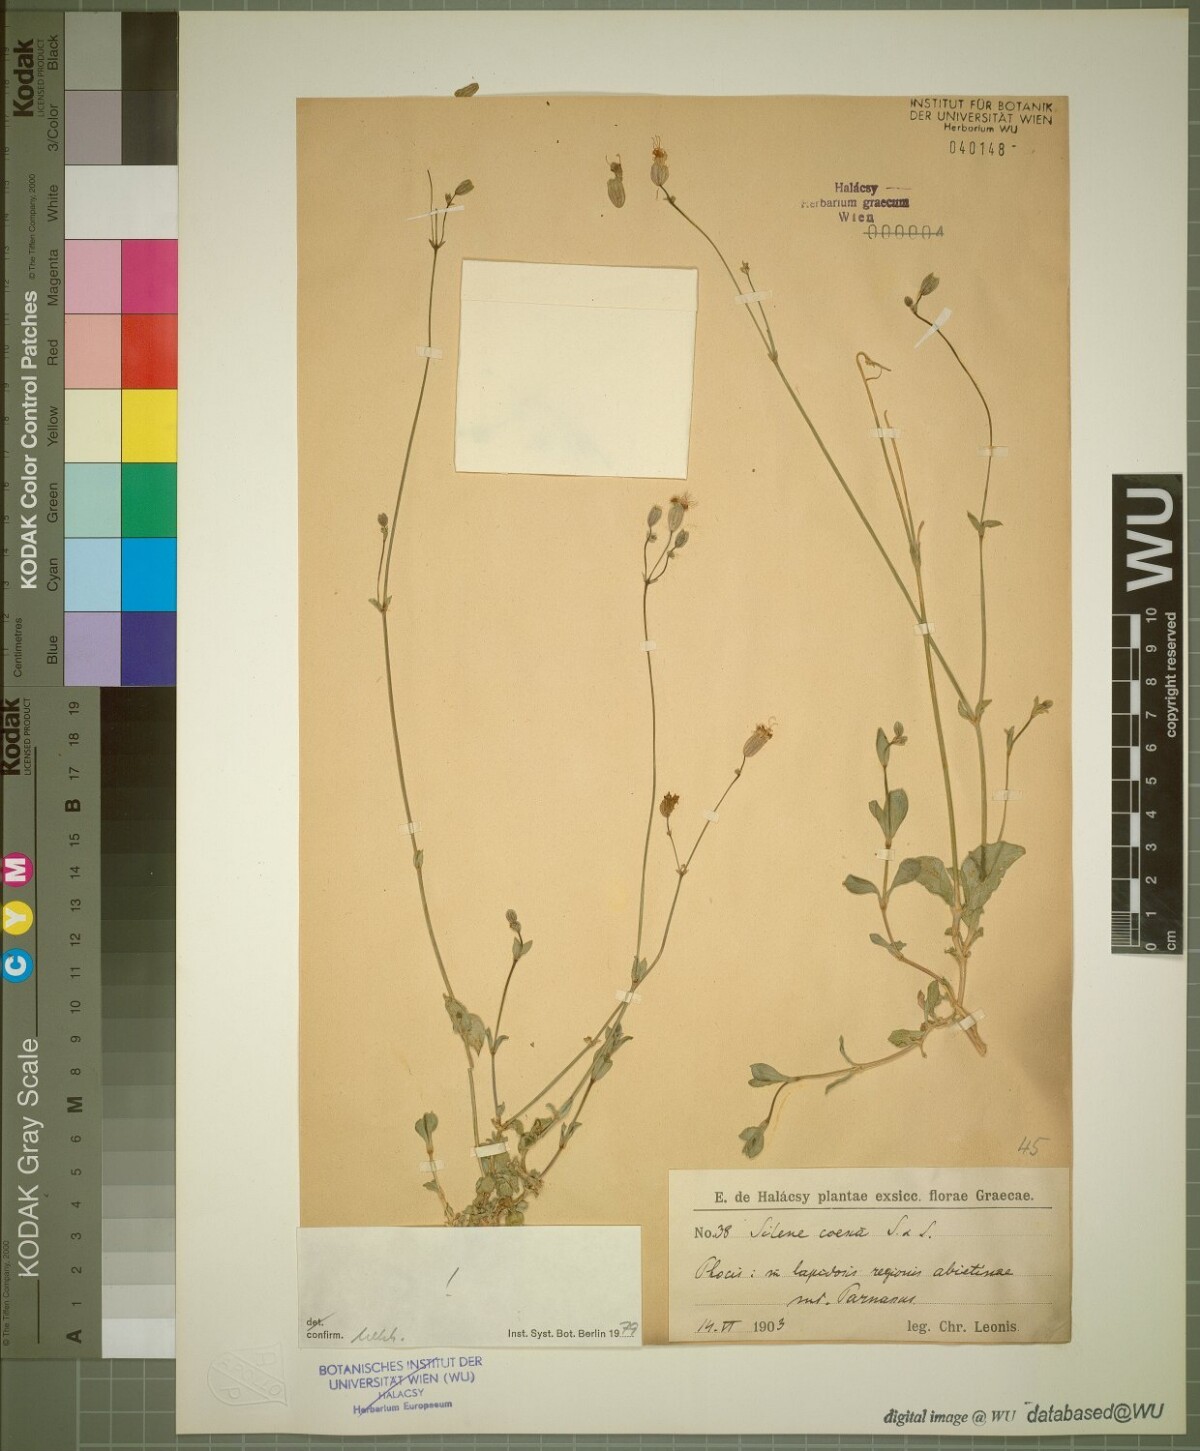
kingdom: Plantae
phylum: Tracheophyta
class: Magnoliopsida
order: Caryophyllales
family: Caryophyllaceae
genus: Silene
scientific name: Silene caesia
